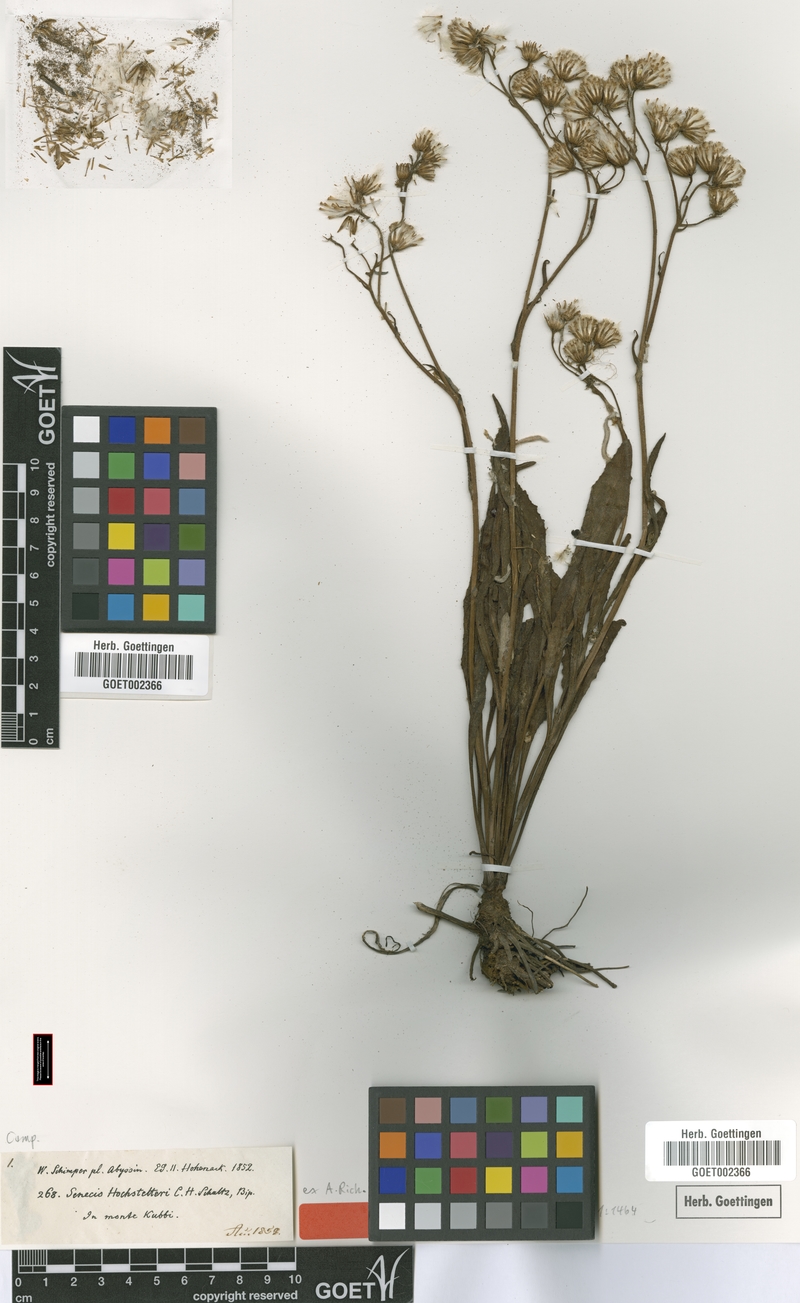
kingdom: Plantae
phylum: Tracheophyta
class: Magnoliopsida
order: Asterales
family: Asteraceae
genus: Senecio
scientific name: Senecio hochstetteri
